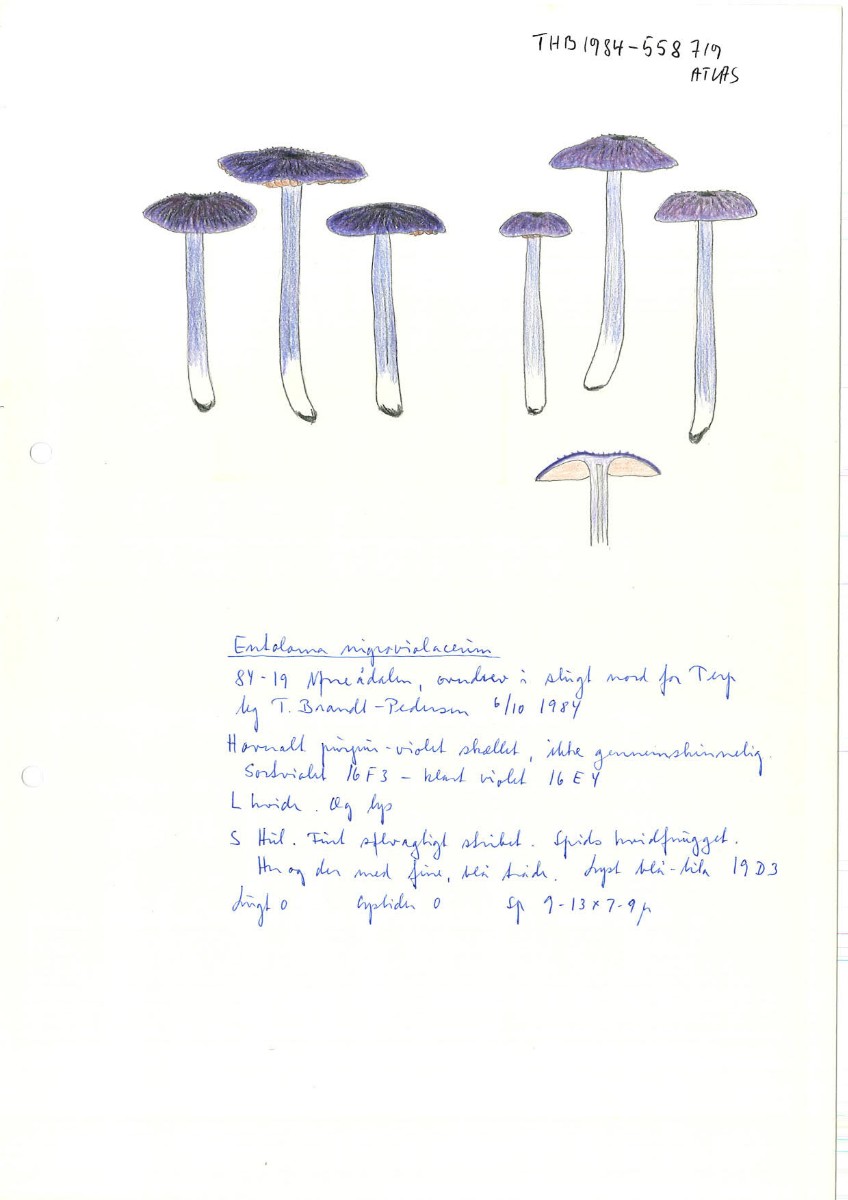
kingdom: Fungi
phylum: Basidiomycota
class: Agaricomycetes
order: Agaricales
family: Entolomataceae
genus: Entoloma
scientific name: Entoloma atrocoeruleum
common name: sortblå rødblad
